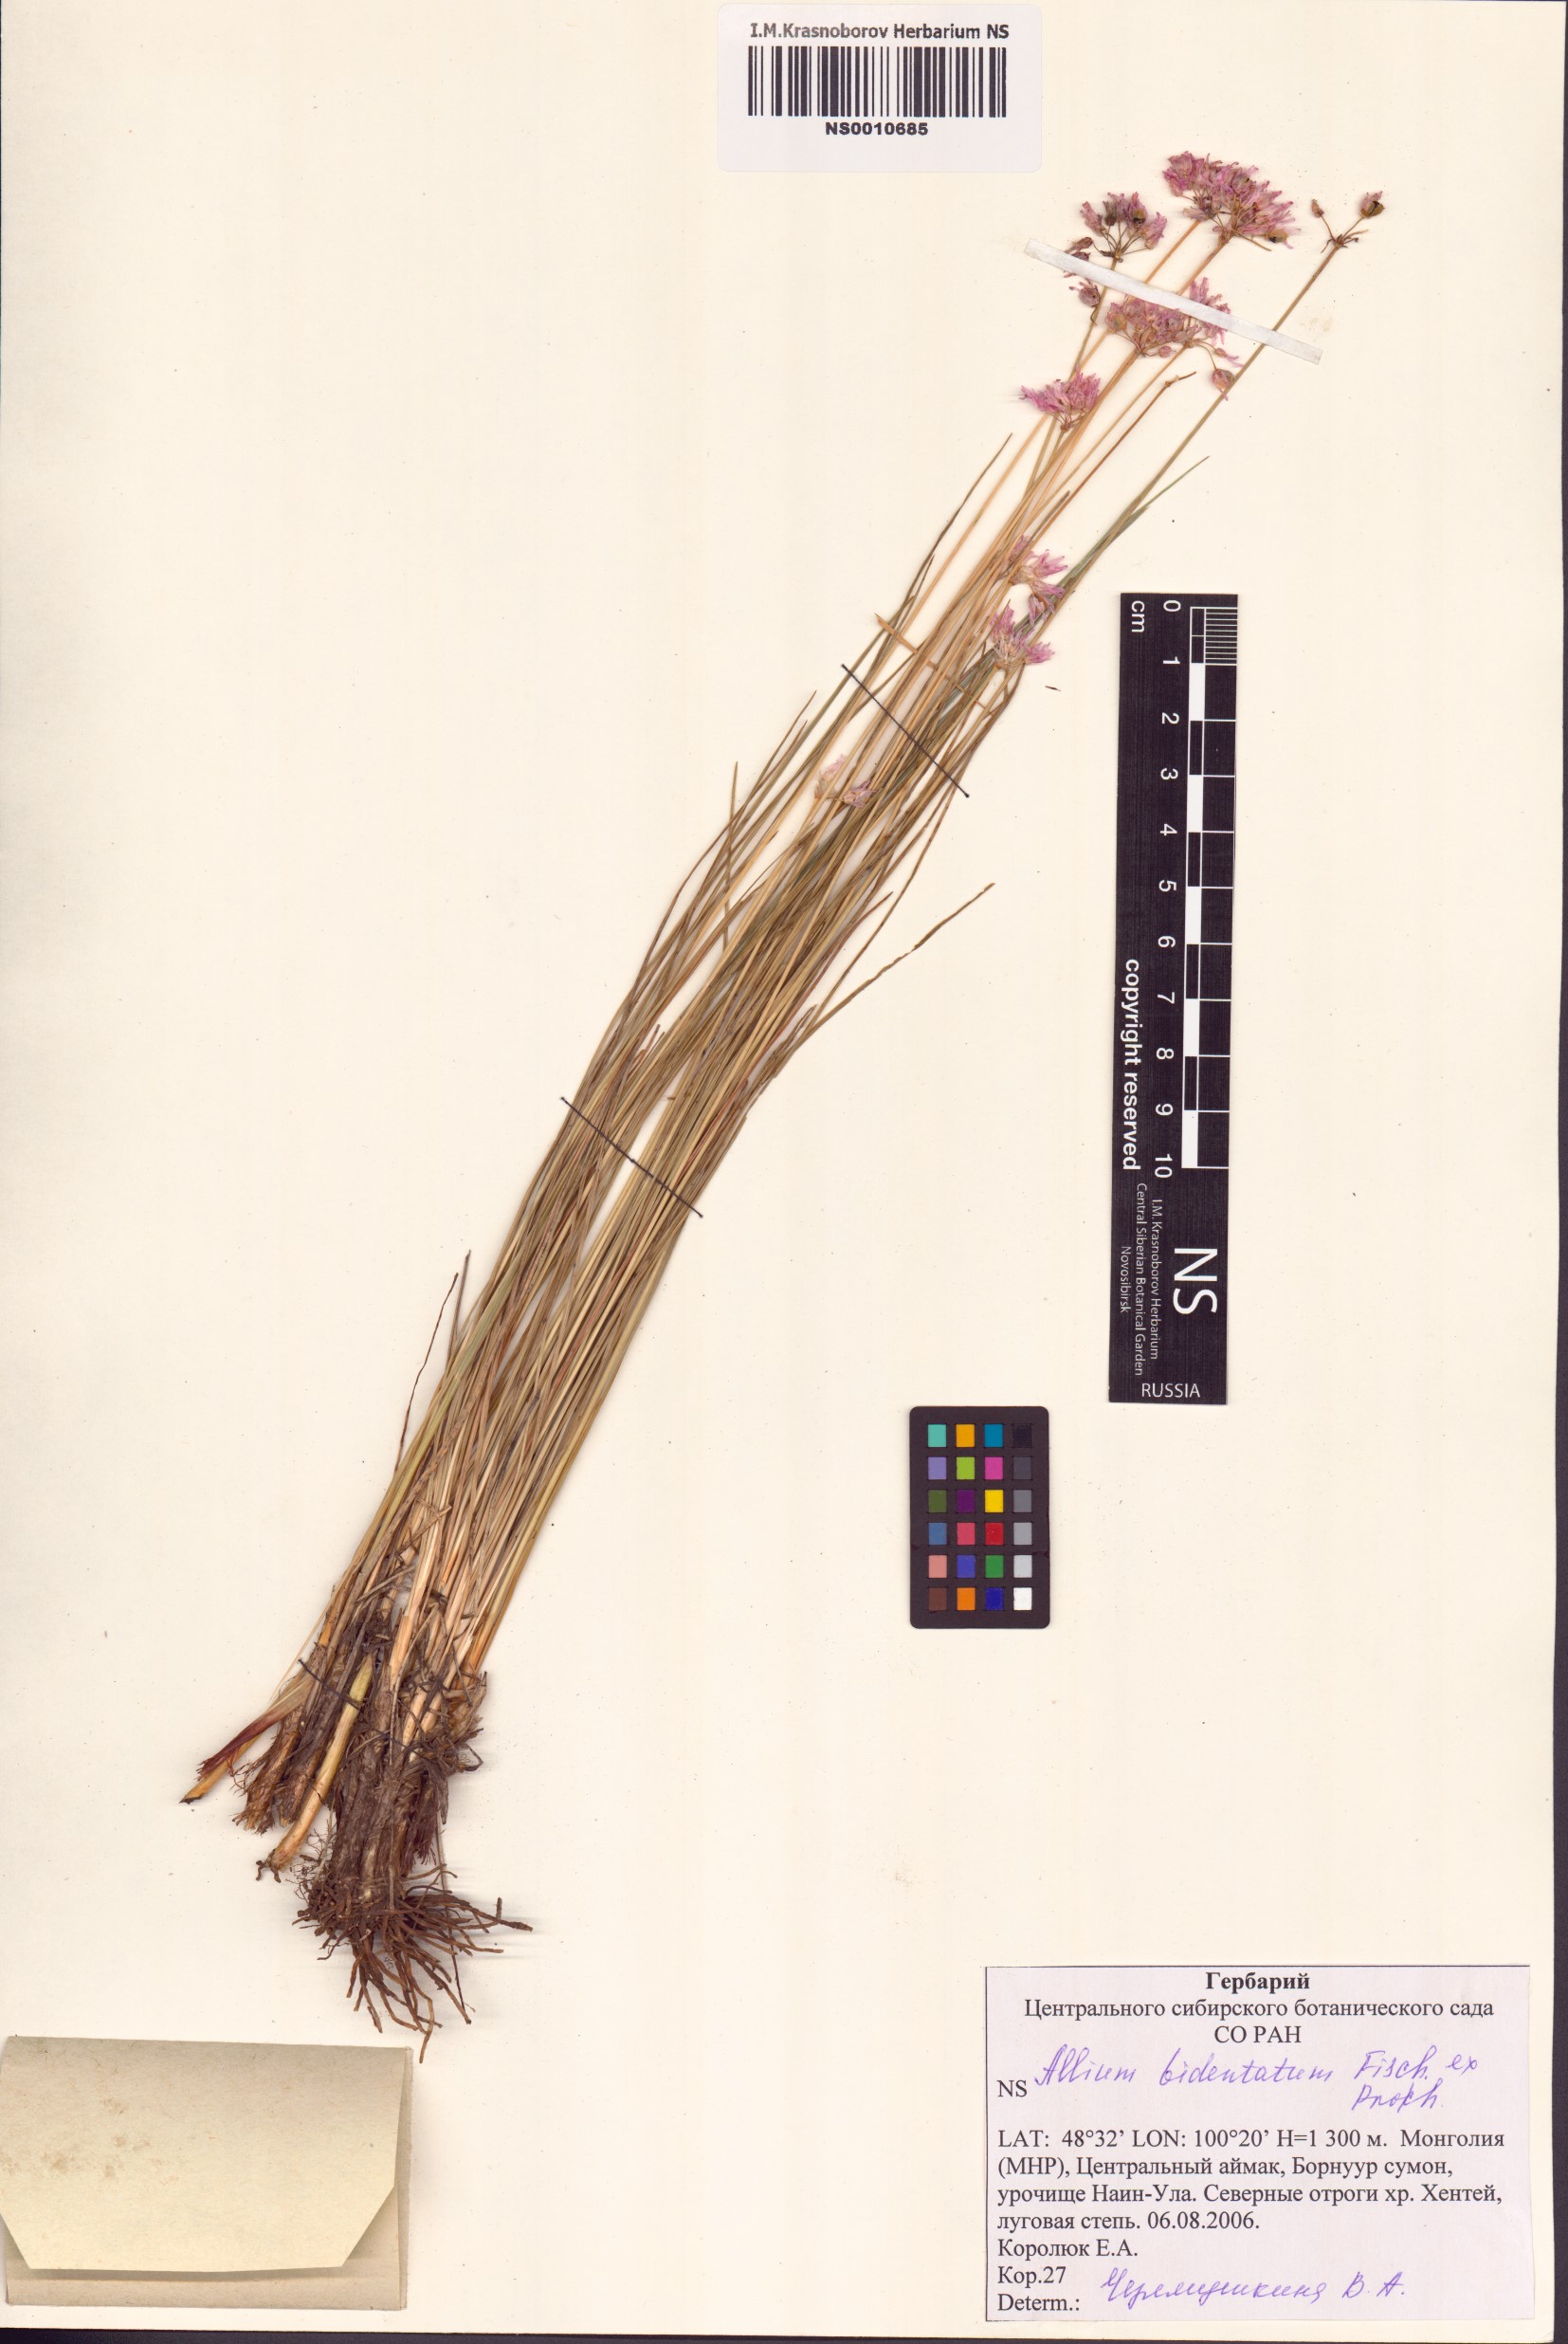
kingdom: Plantae
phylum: Tracheophyta
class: Liliopsida
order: Asparagales
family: Amaryllidaceae
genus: Allium
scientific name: Allium bidentatum
